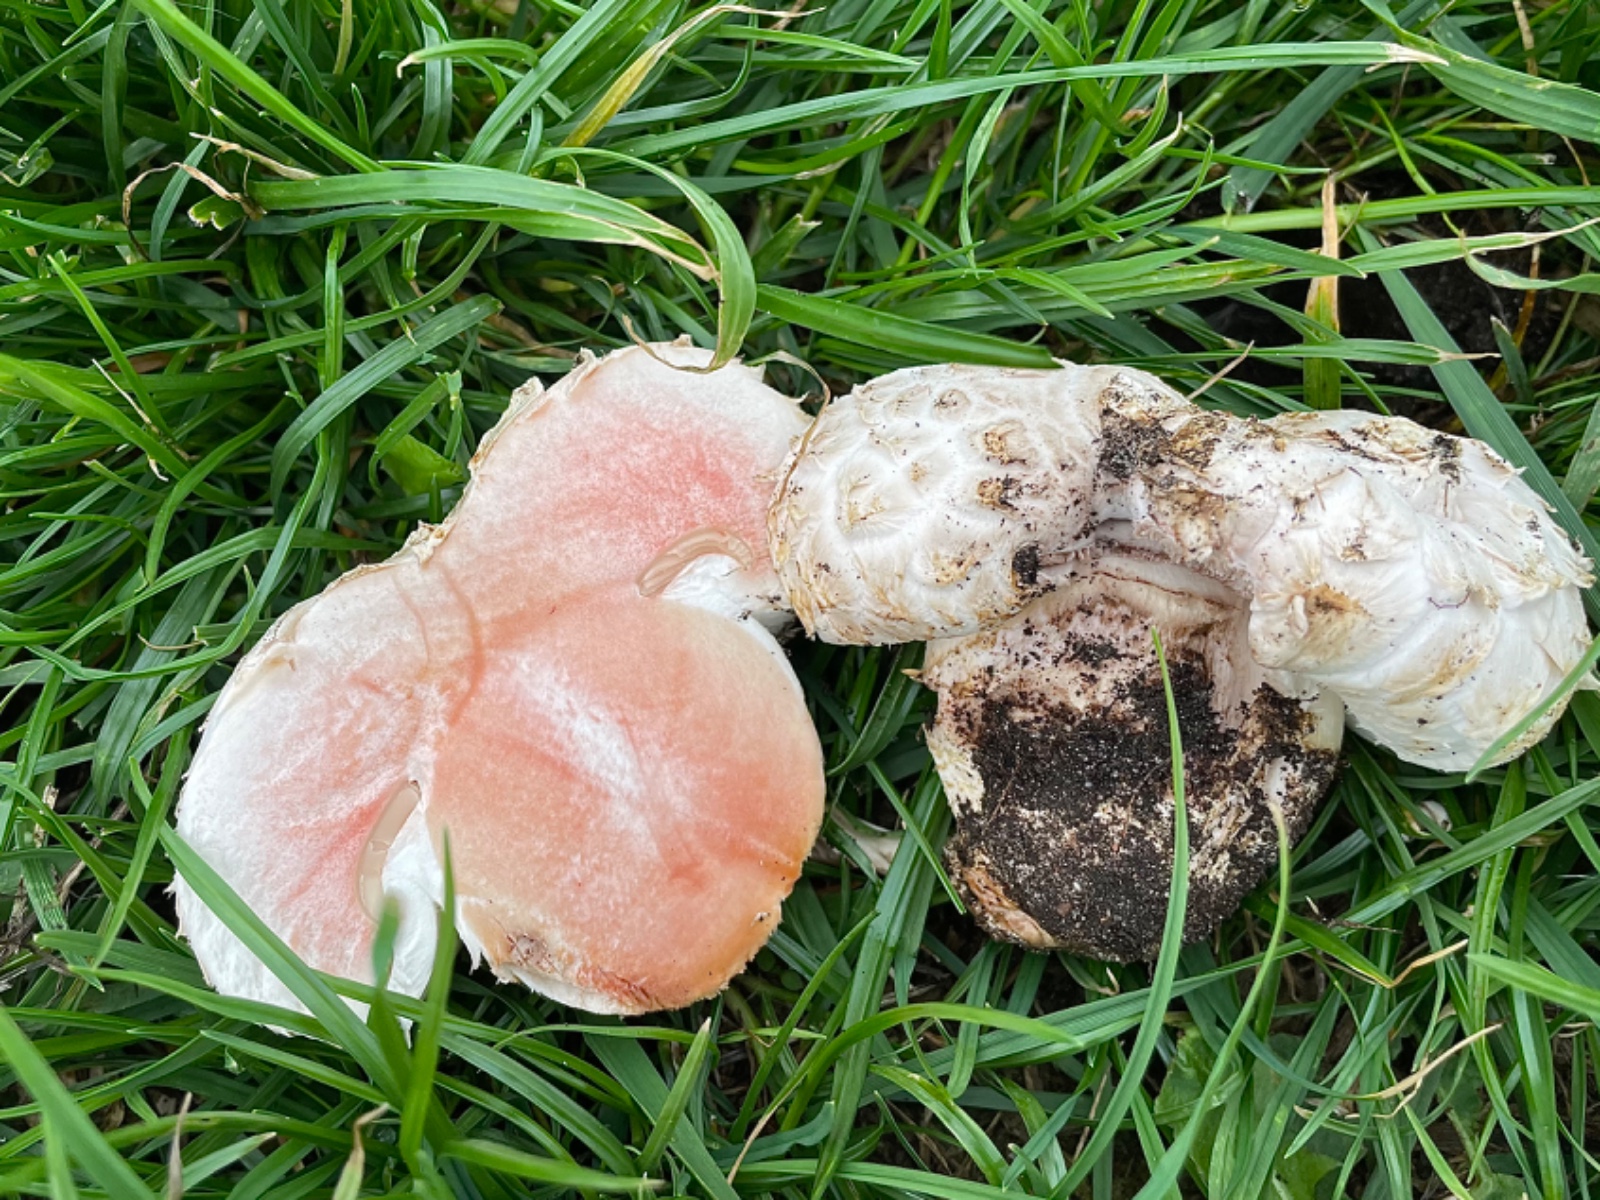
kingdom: Fungi
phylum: Basidiomycota
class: Agaricomycetes
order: Agaricales
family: Agaricaceae
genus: Agaricus
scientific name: Agaricus bernardii
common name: strandengs-champignon
